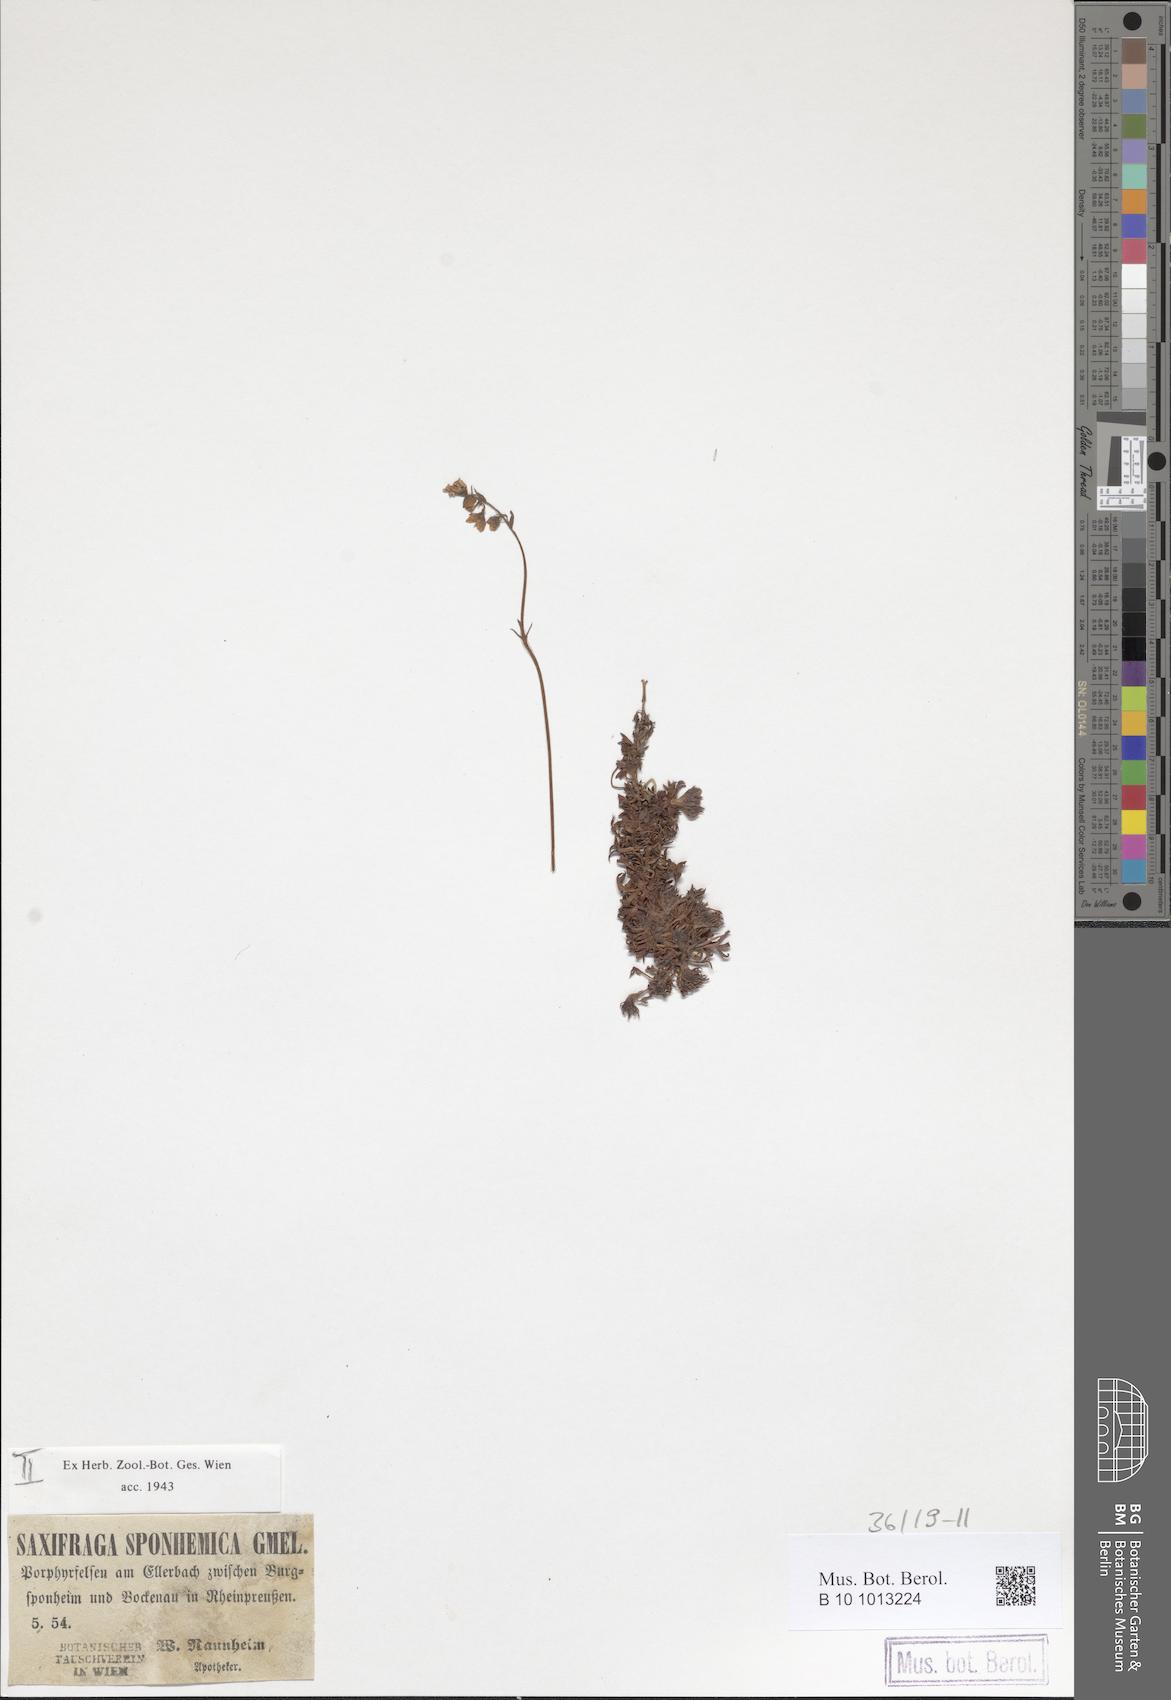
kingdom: Plantae
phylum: Tracheophyta
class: Magnoliopsida
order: Saxifragales
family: Saxifragaceae
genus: Saxifraga
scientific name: Saxifraga rosacea
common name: Irish saxifrage
